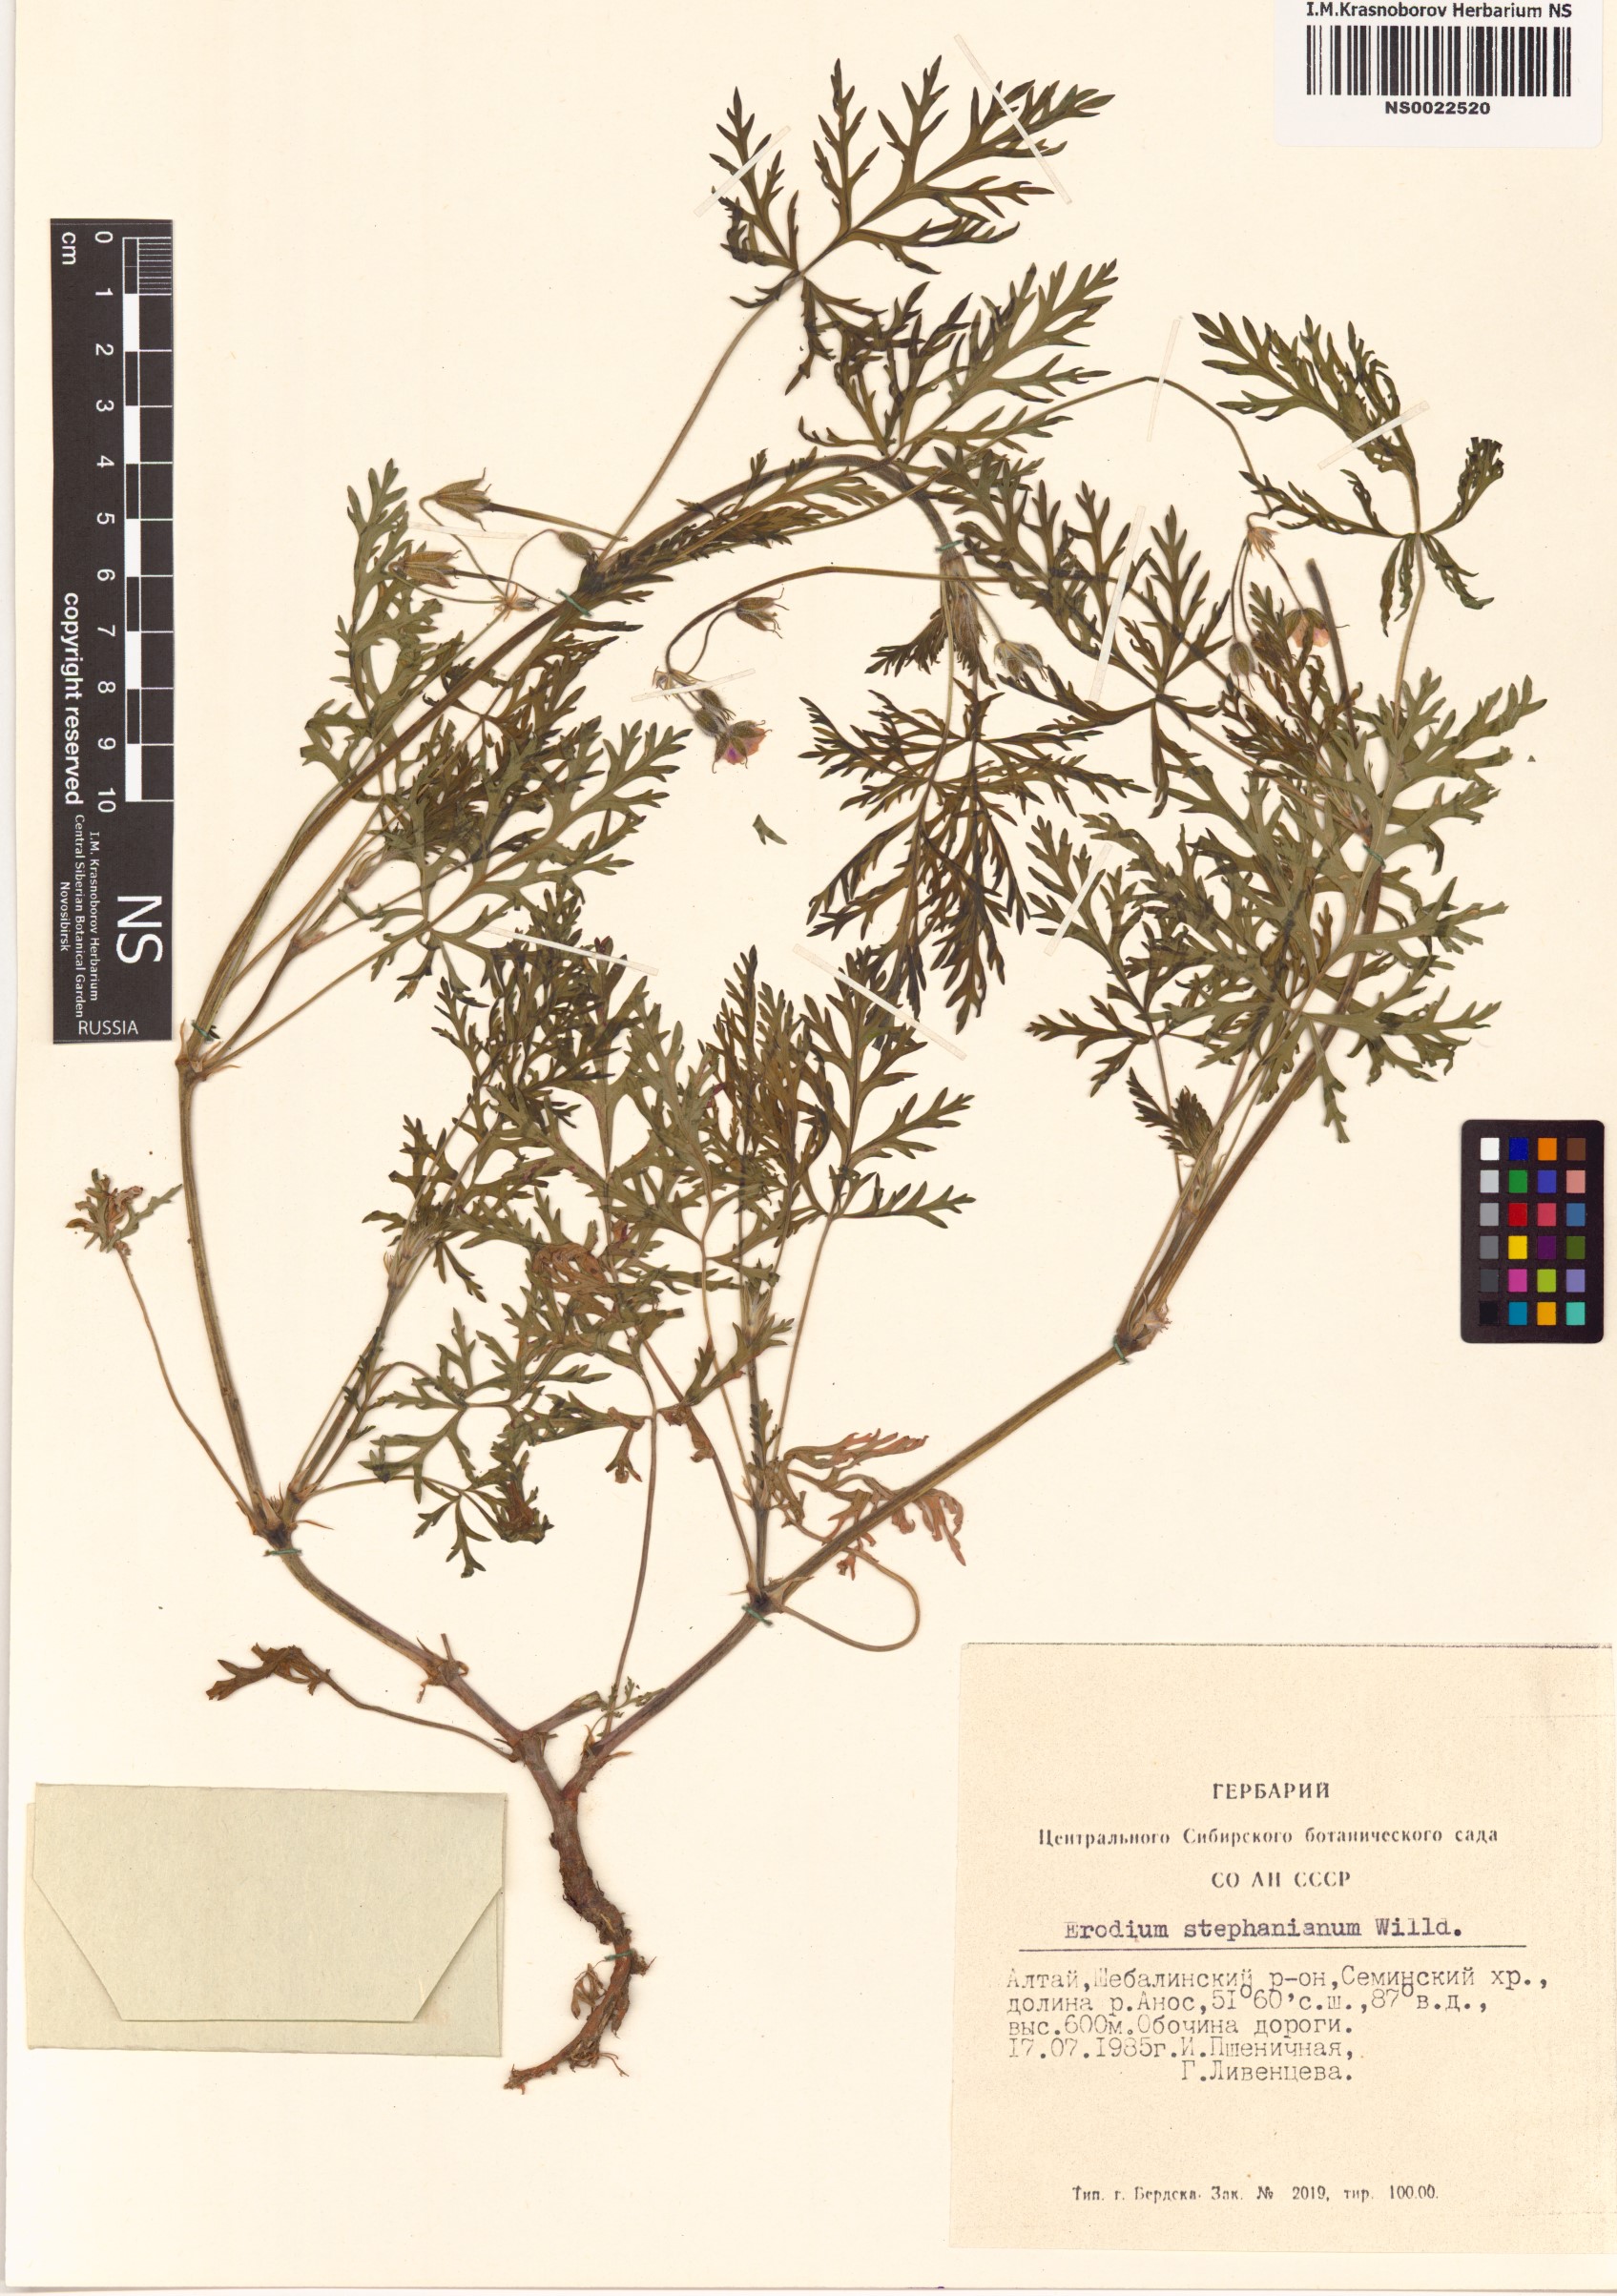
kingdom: Plantae
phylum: Tracheophyta
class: Magnoliopsida
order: Geraniales
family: Geraniaceae
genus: Erodium
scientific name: Erodium stephanianum
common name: Stephen's stork's bill
